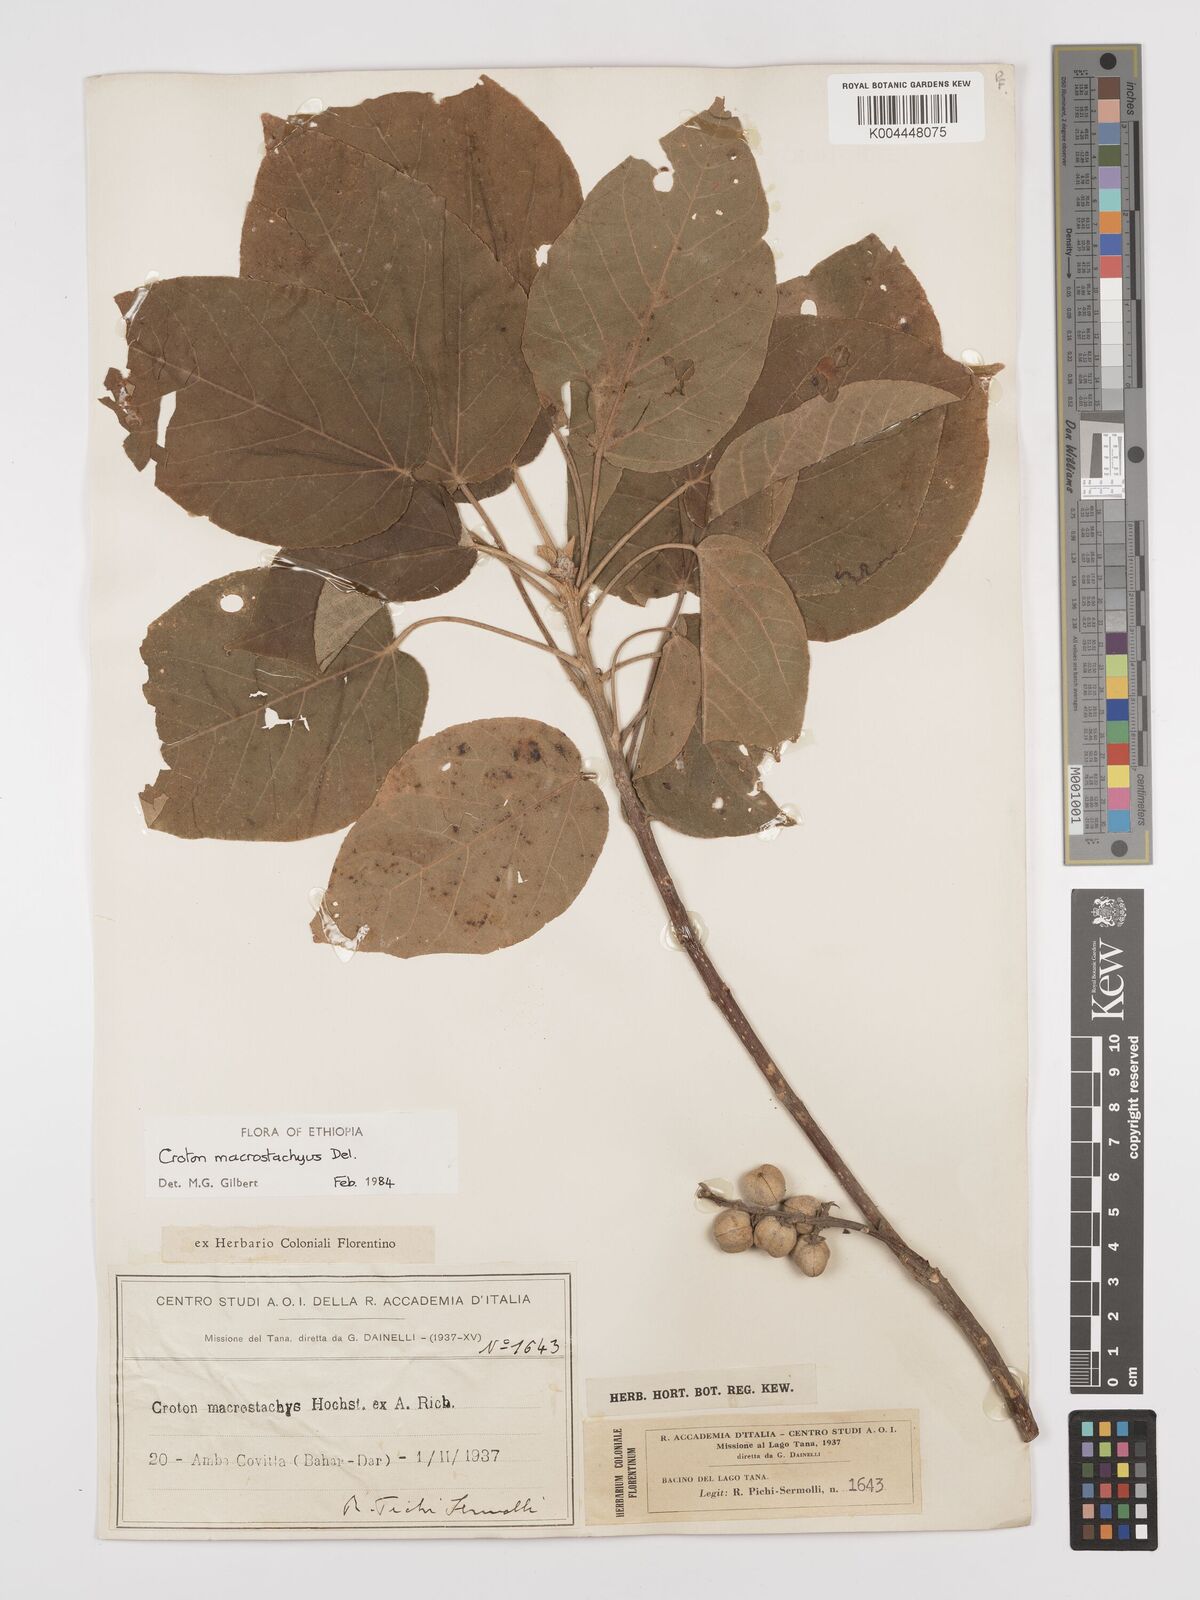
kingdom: Plantae
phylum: Tracheophyta
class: Magnoliopsida
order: Malpighiales
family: Euphorbiaceae
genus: Croton
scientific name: Croton macrostachyus
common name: Mutundu
